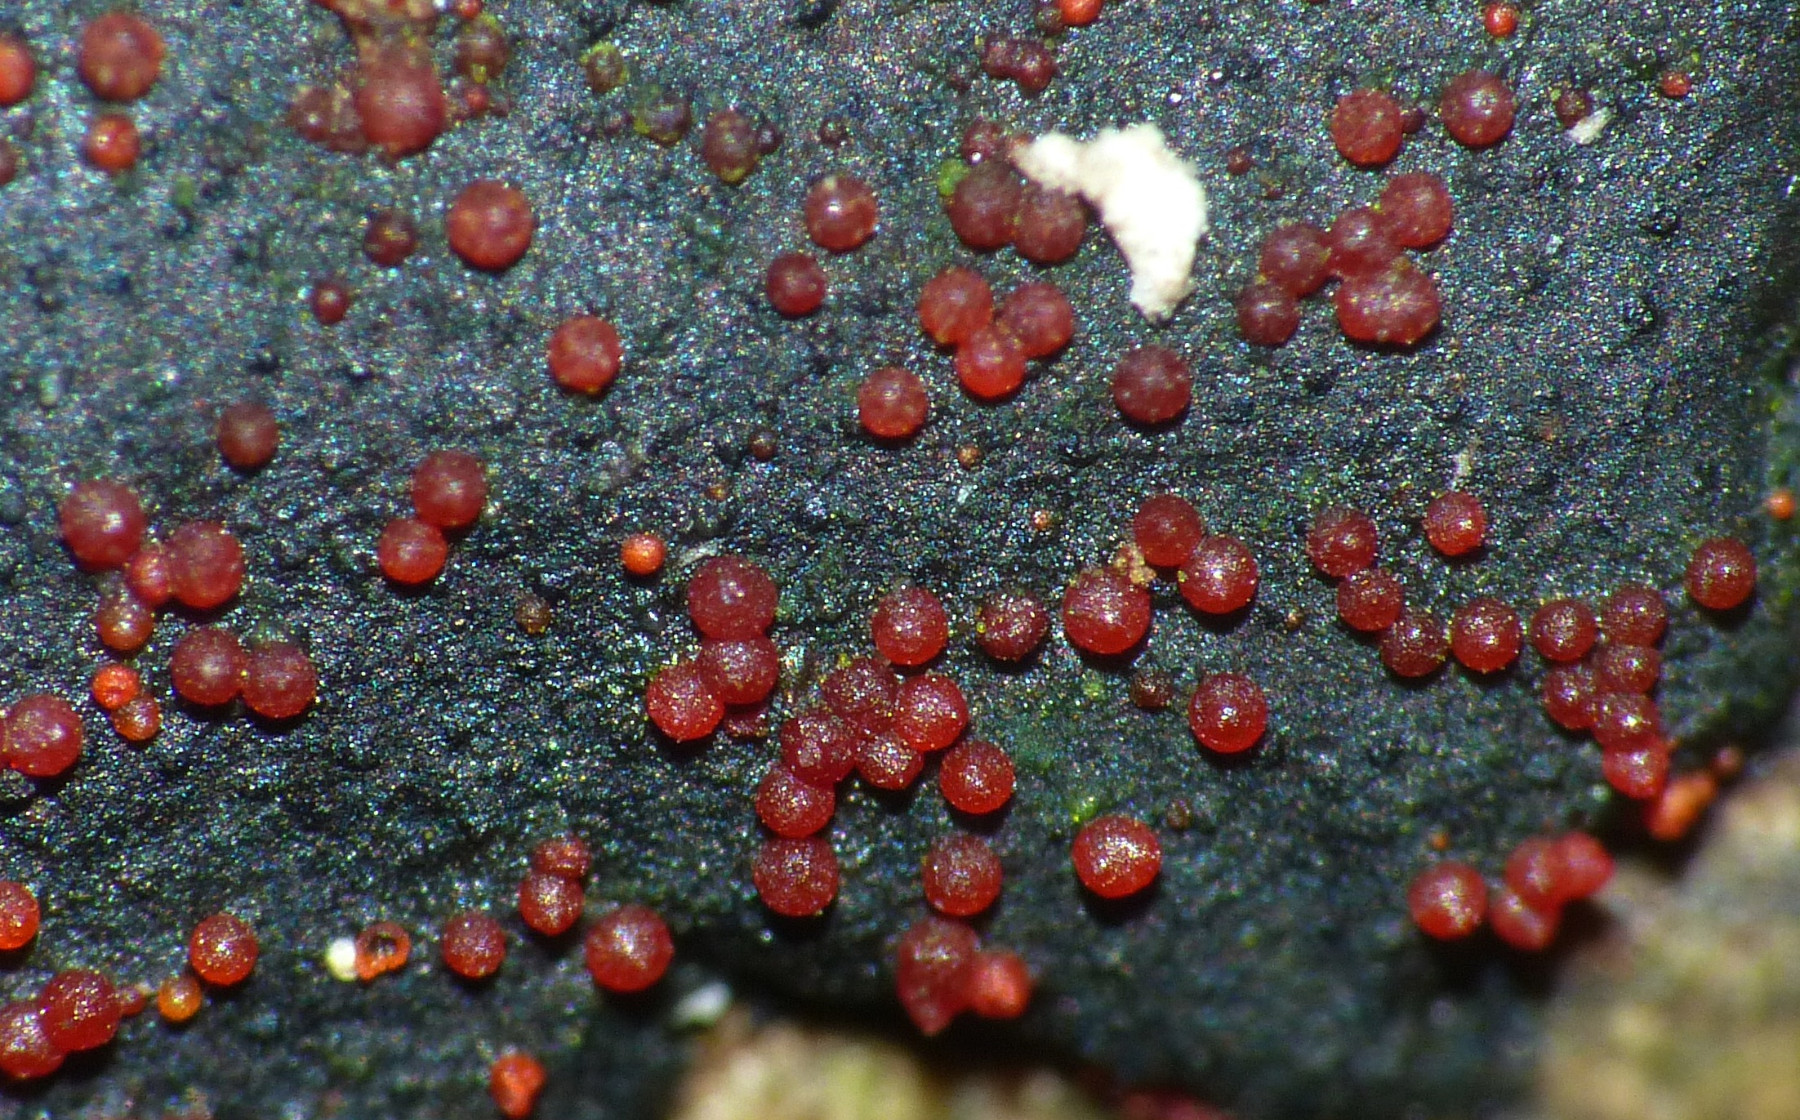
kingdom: Fungi
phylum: Ascomycota
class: Sordariomycetes
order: Hypocreales
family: Nectriaceae
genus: Dialonectria
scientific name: Dialonectria episphaeria
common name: kulskorpe-cinnobersvamp
